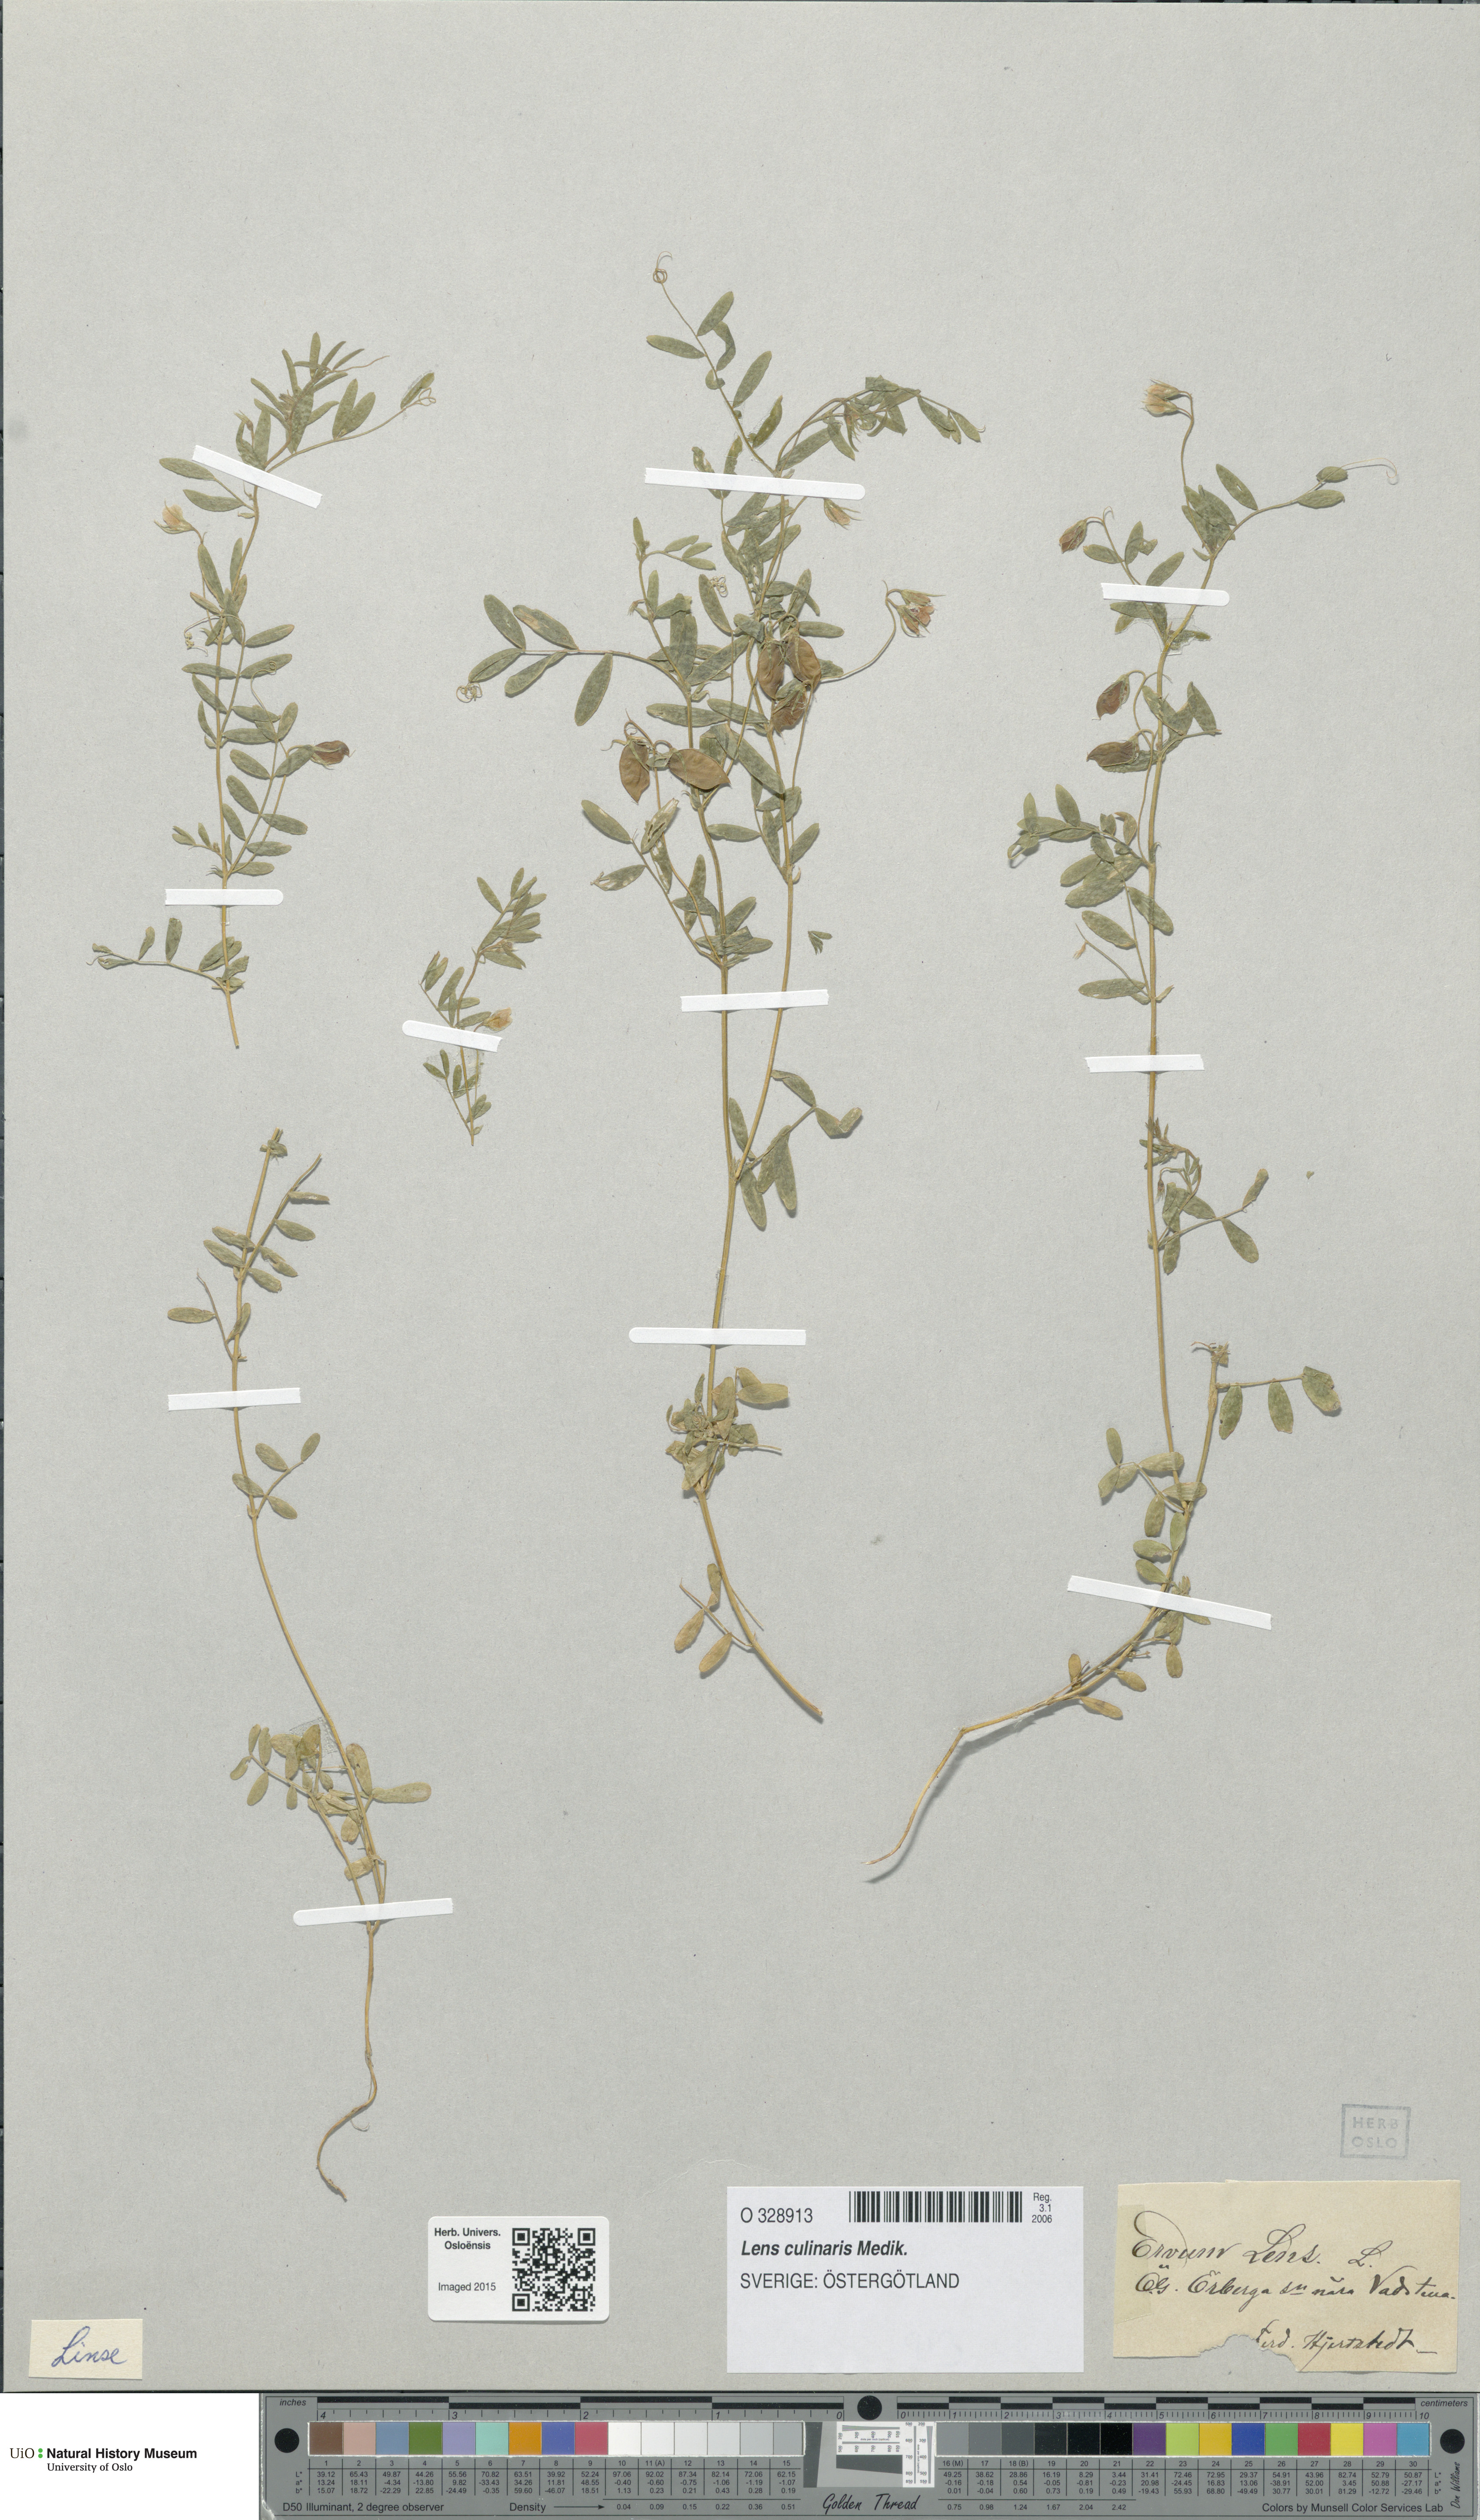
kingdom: Plantae
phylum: Tracheophyta
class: Magnoliopsida
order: Fabales
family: Fabaceae
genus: Vicia
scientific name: Vicia lens
